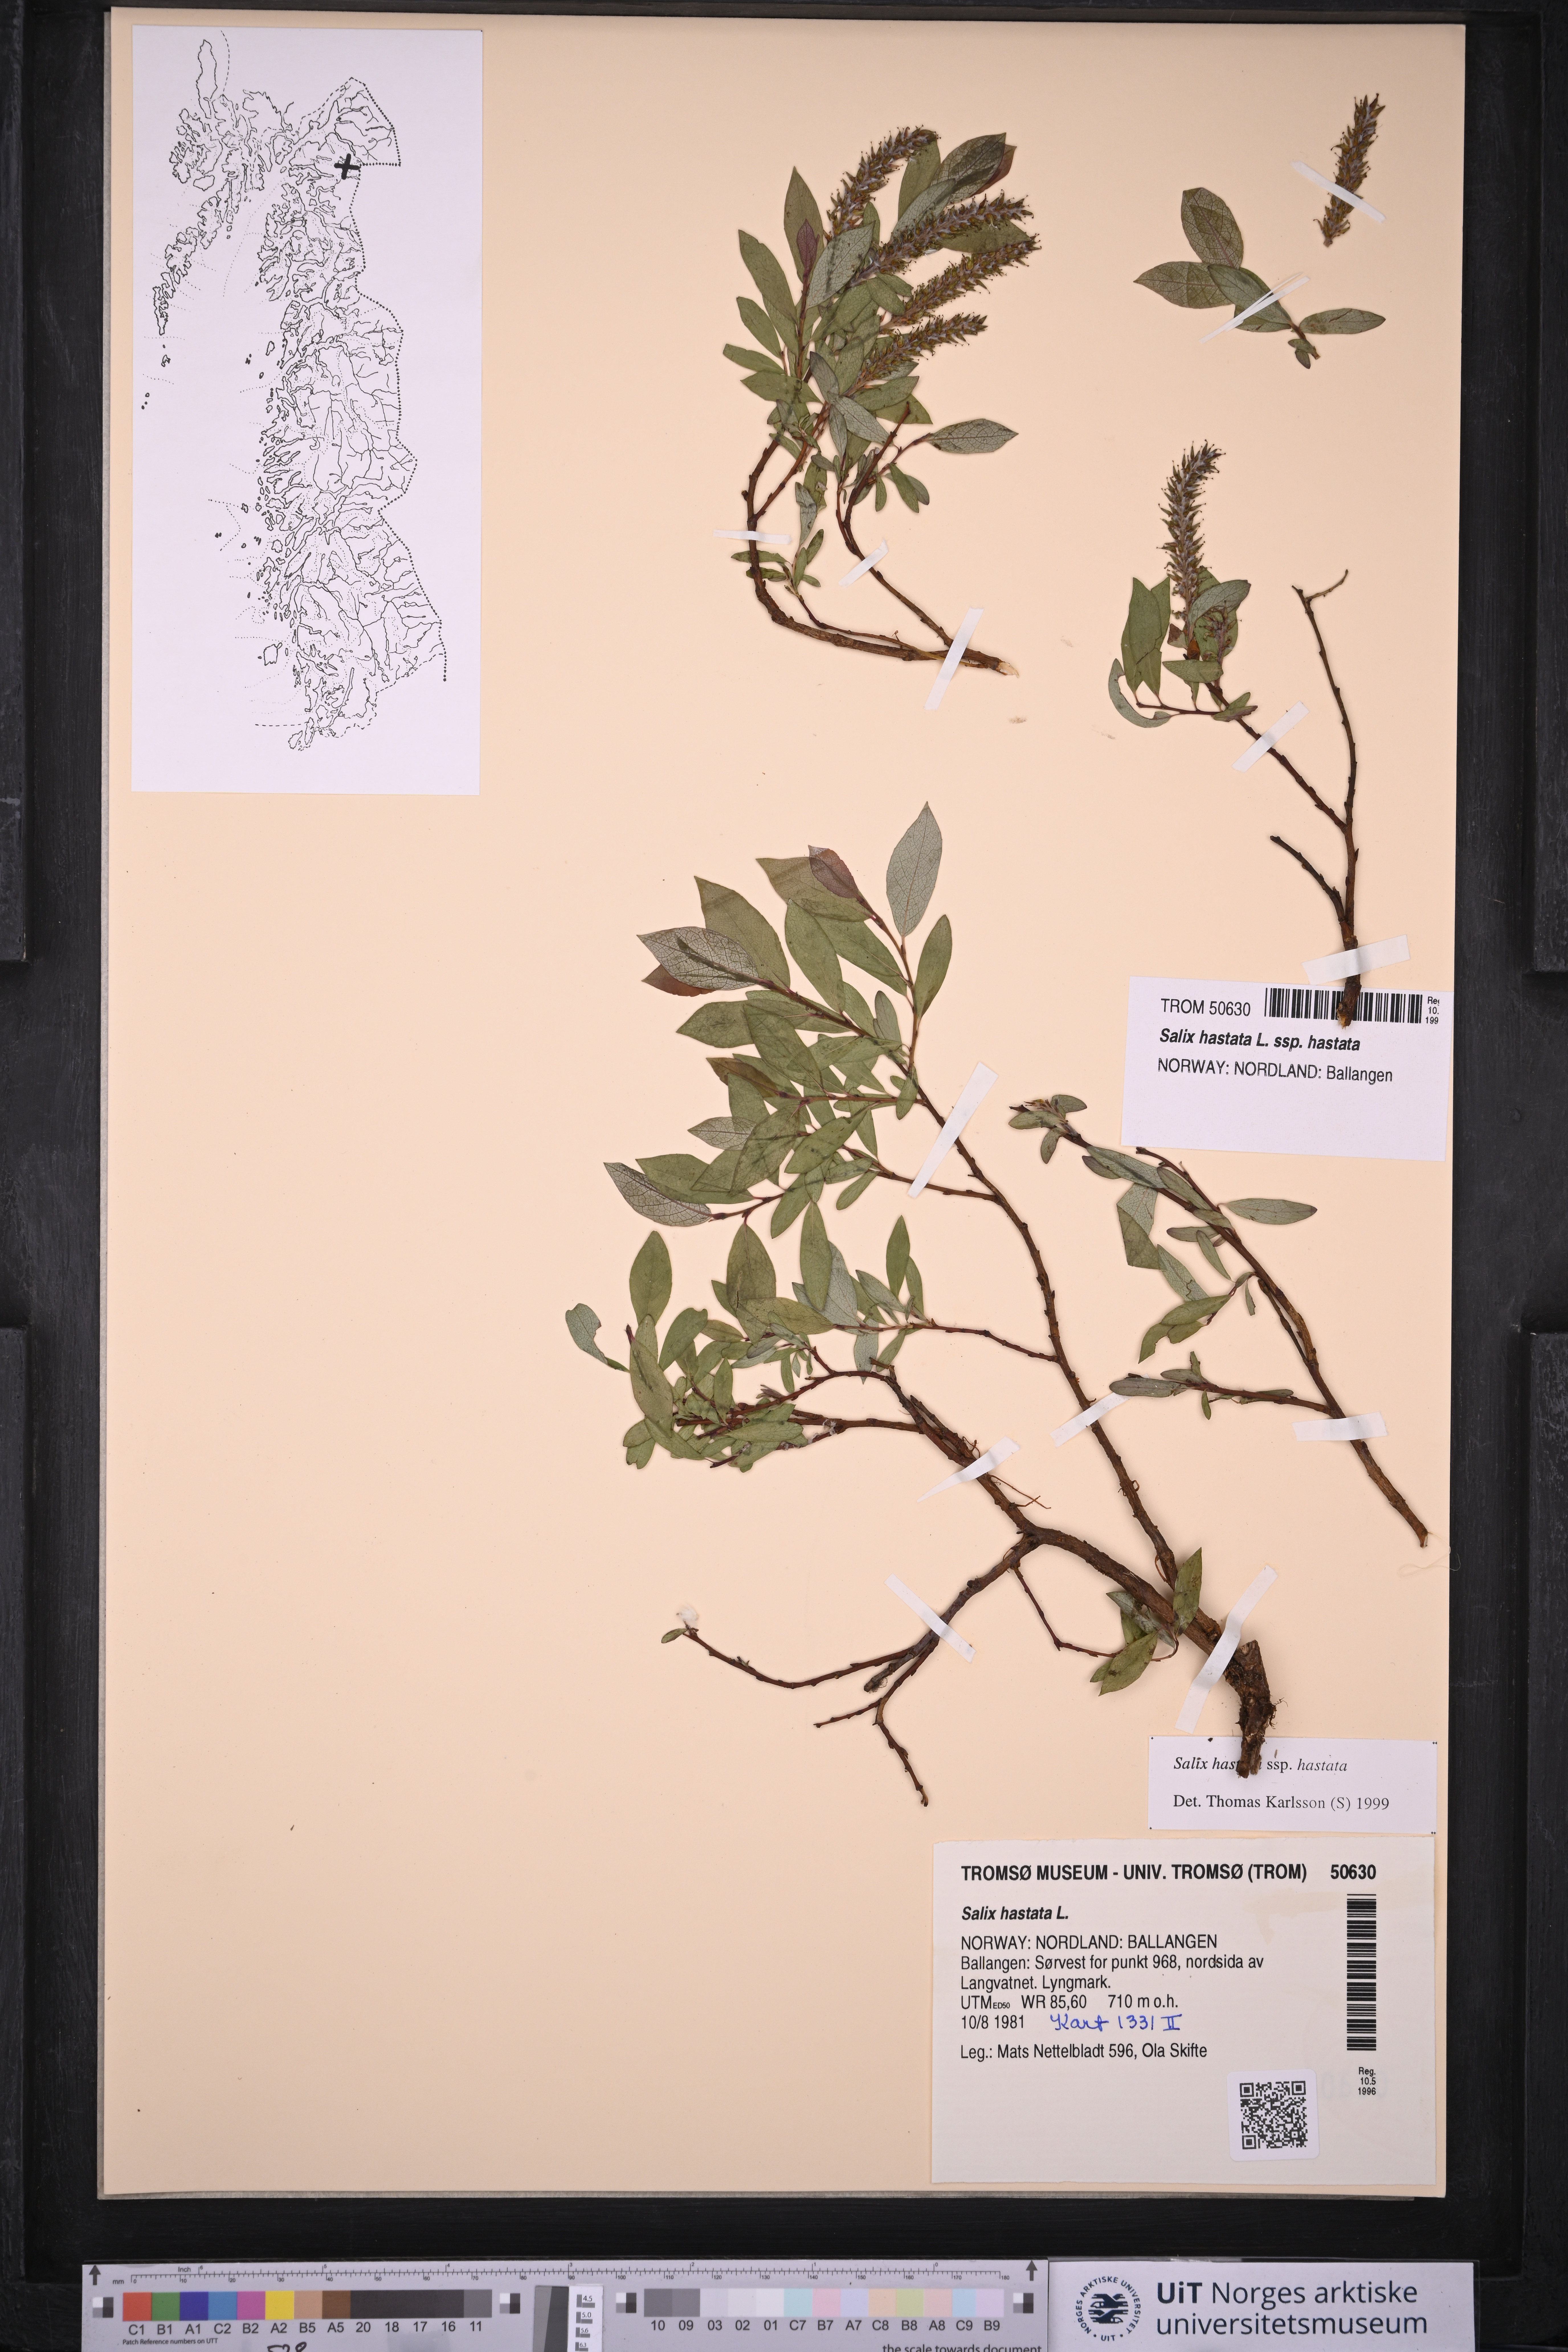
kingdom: Plantae
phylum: Tracheophyta
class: Magnoliopsida
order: Malpighiales
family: Salicaceae
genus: Salix
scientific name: Salix hastata
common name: Halberd willow
